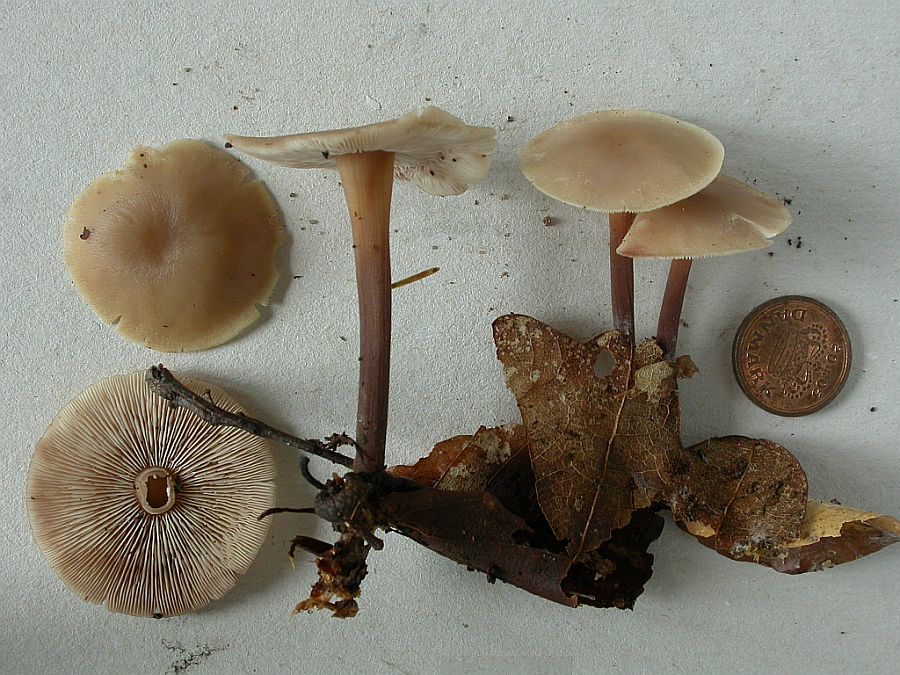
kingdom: Fungi
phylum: Basidiomycota
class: Agaricomycetes
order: Agaricales
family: Omphalotaceae
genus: Collybiopsis
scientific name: Collybiopsis confluens
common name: knippe-fladhat
